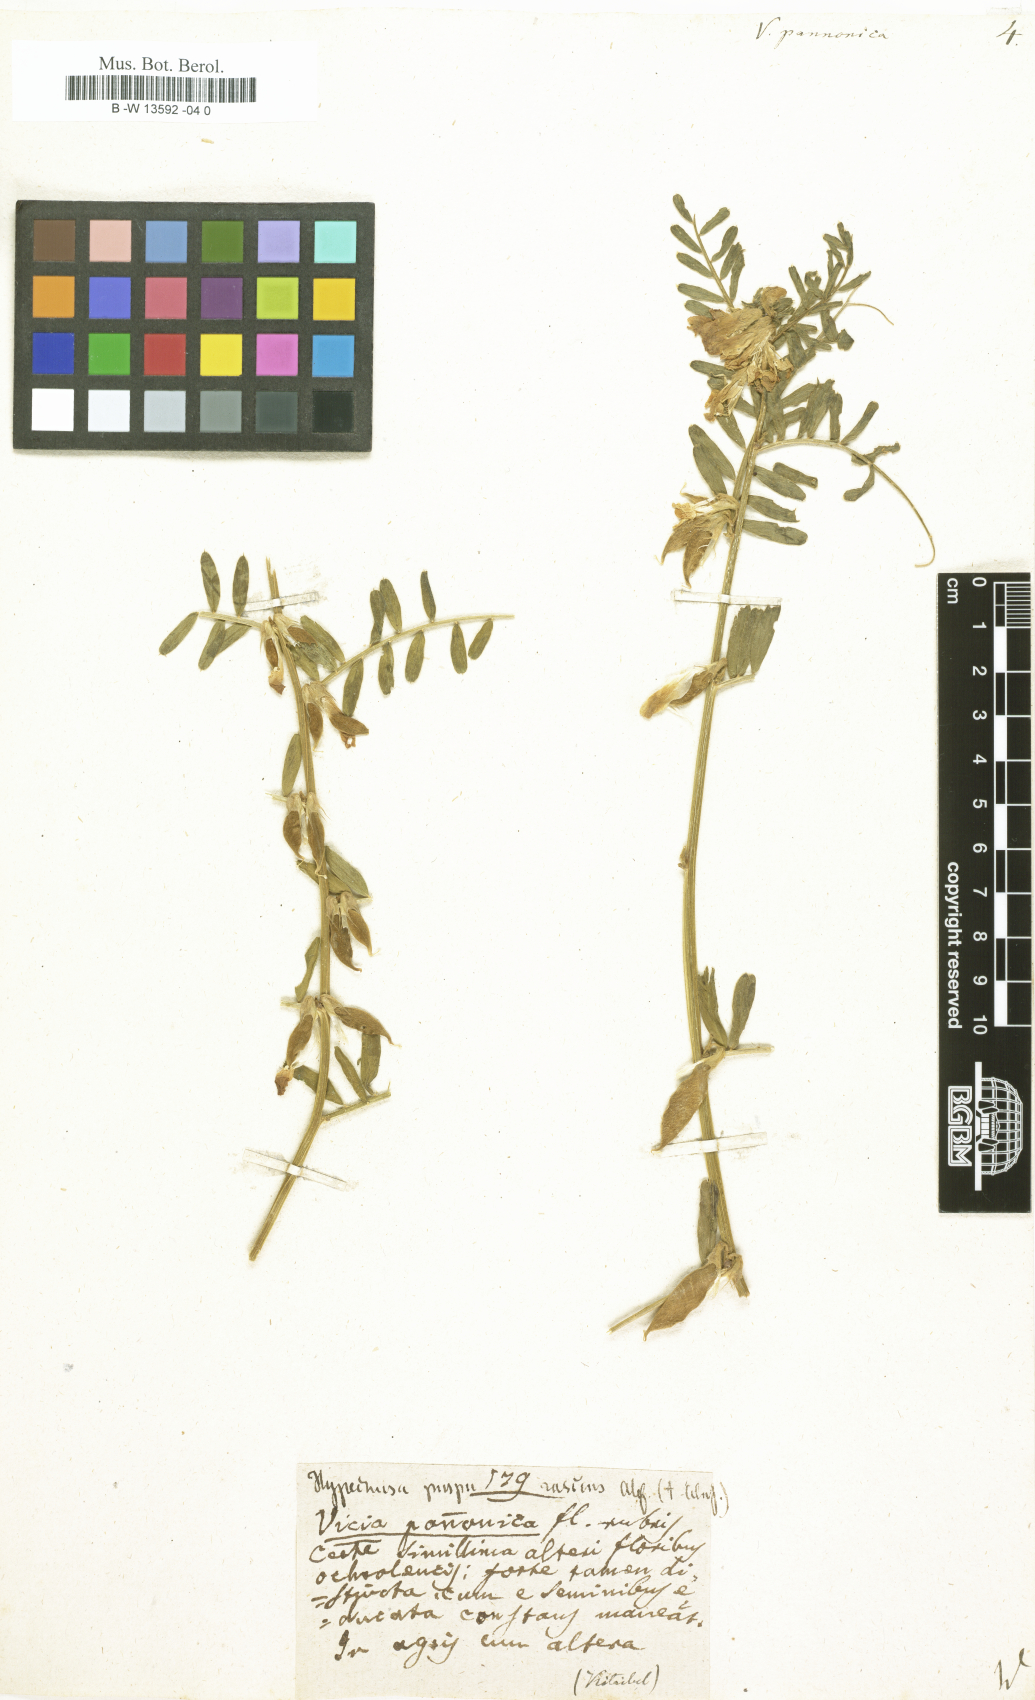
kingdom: Plantae
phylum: Tracheophyta
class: Magnoliopsida
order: Fabales
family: Fabaceae
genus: Vicia
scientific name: Vicia pannonica
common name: Hungarian vetch
